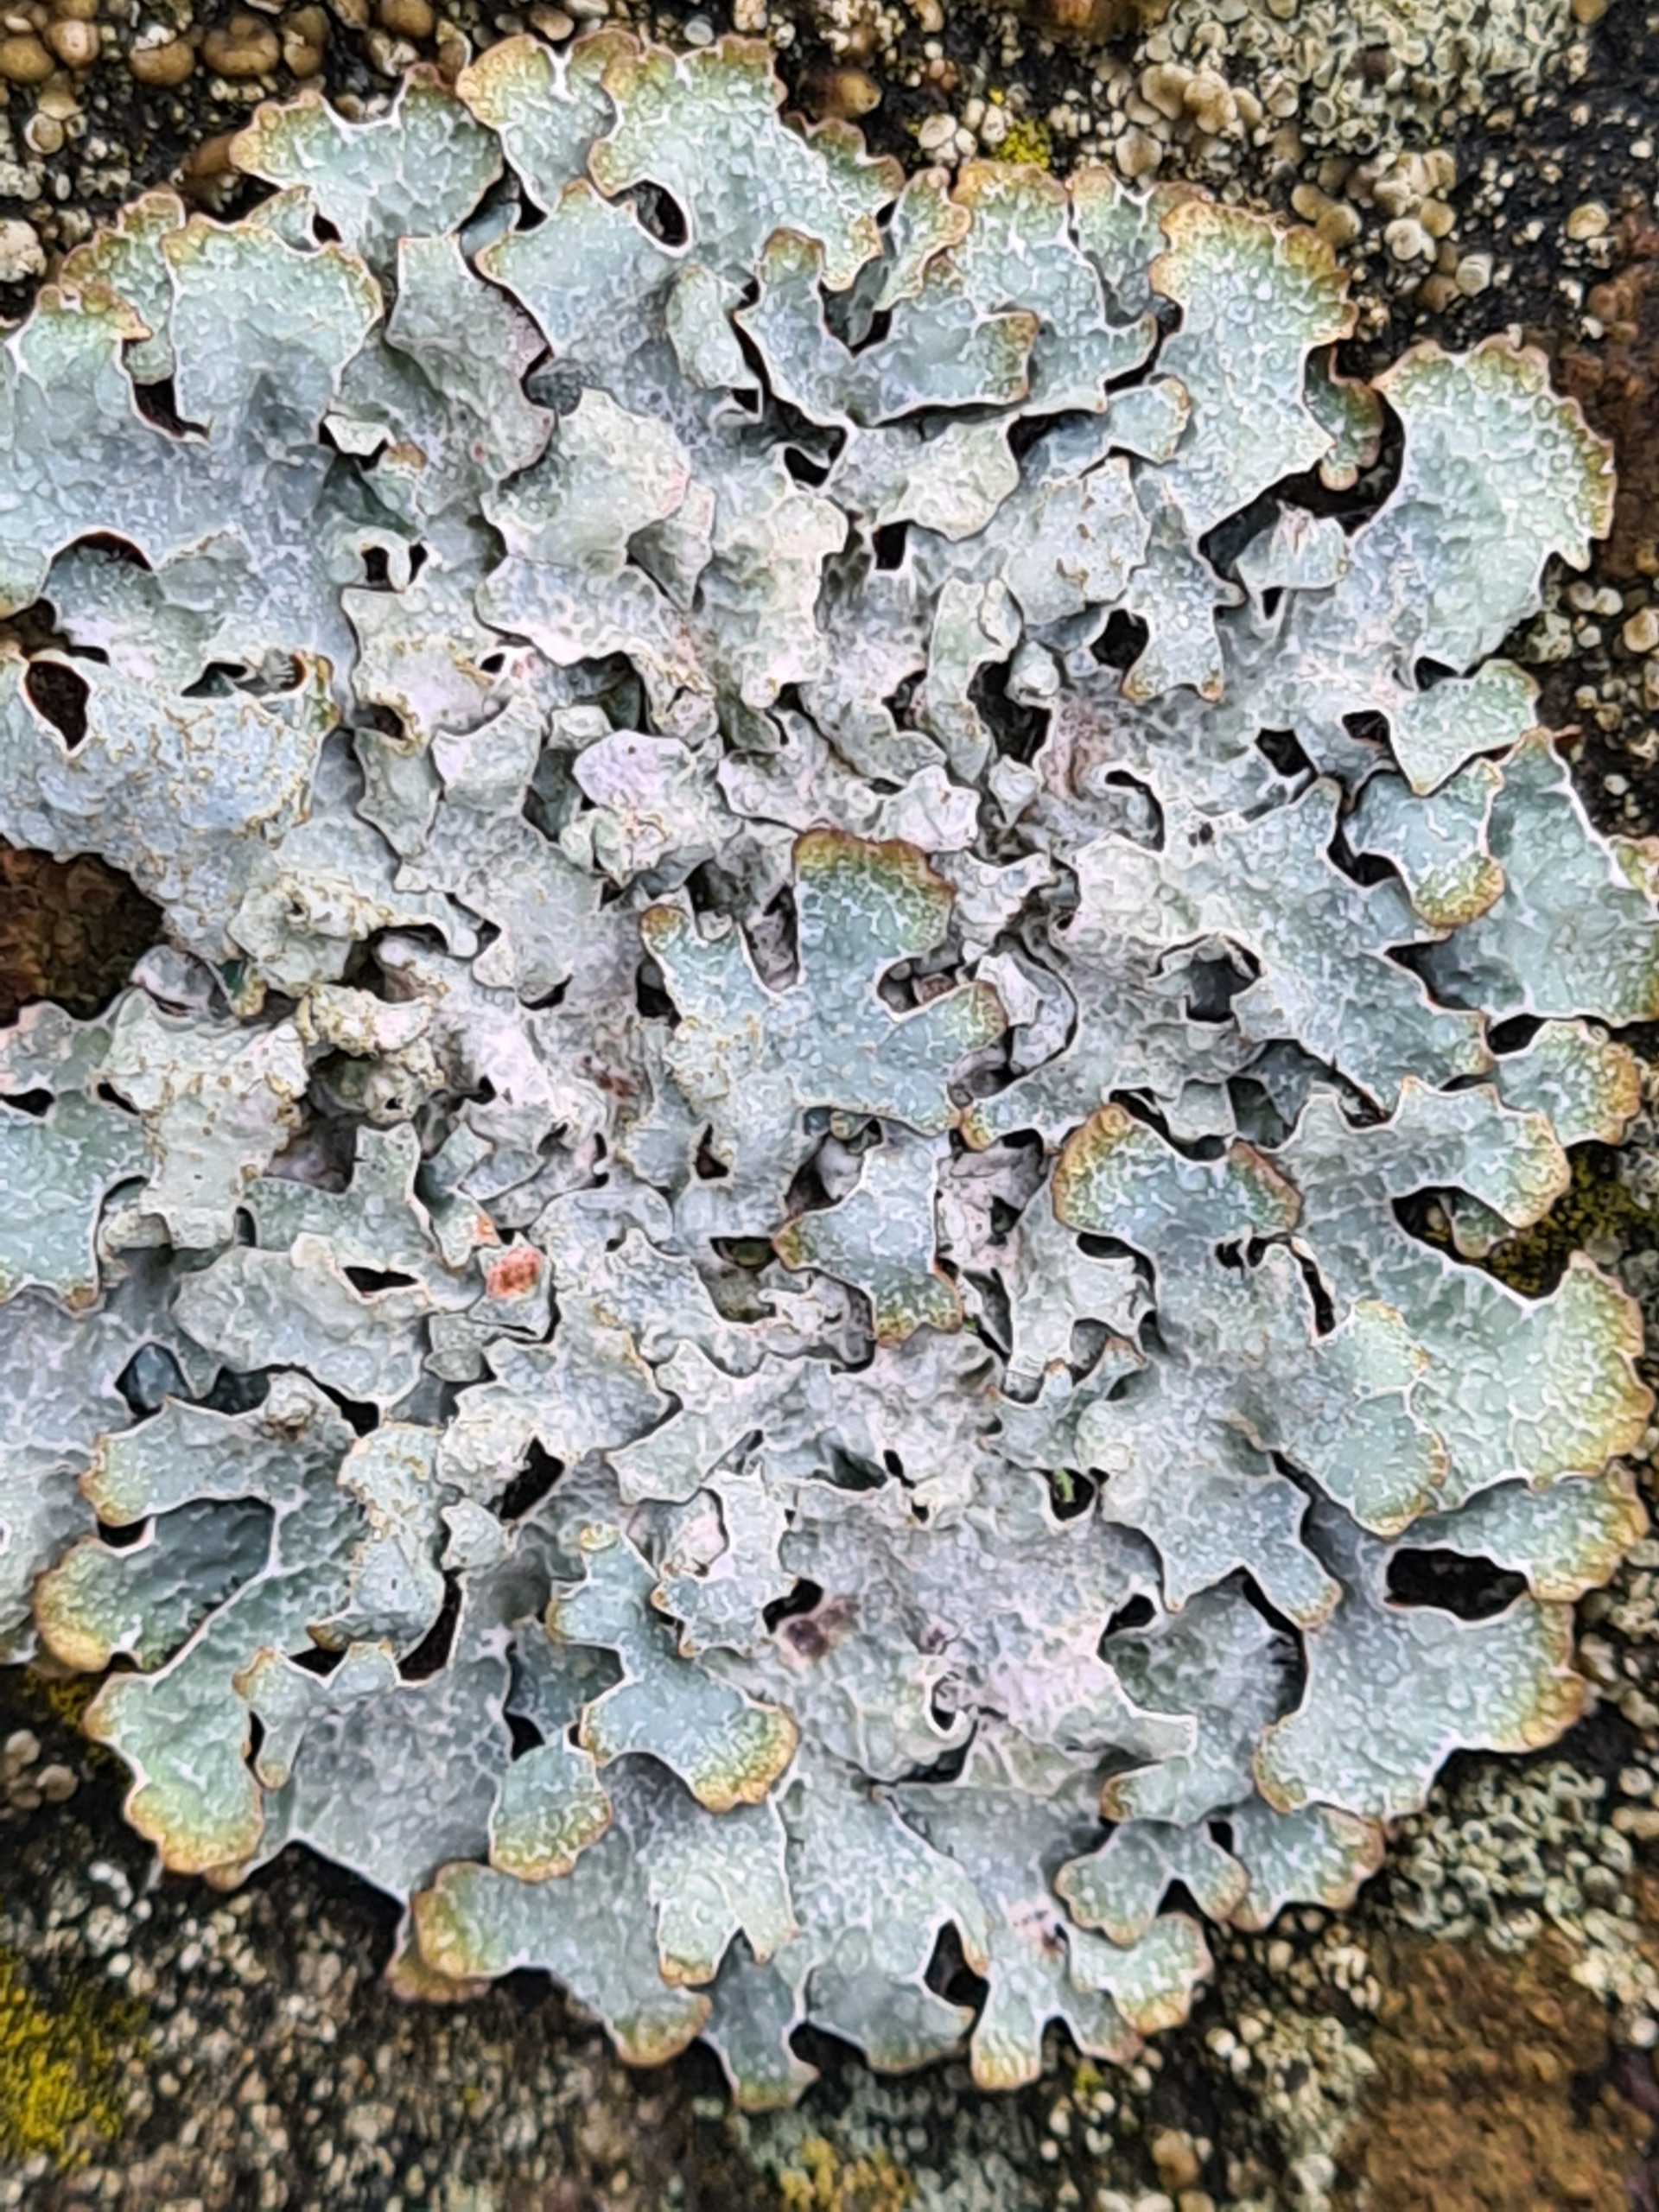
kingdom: Fungi
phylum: Ascomycota
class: Lecanoromycetes
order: Lecanorales
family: Parmeliaceae
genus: Parmelia
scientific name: Parmelia sulcata
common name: Rynket skållav
